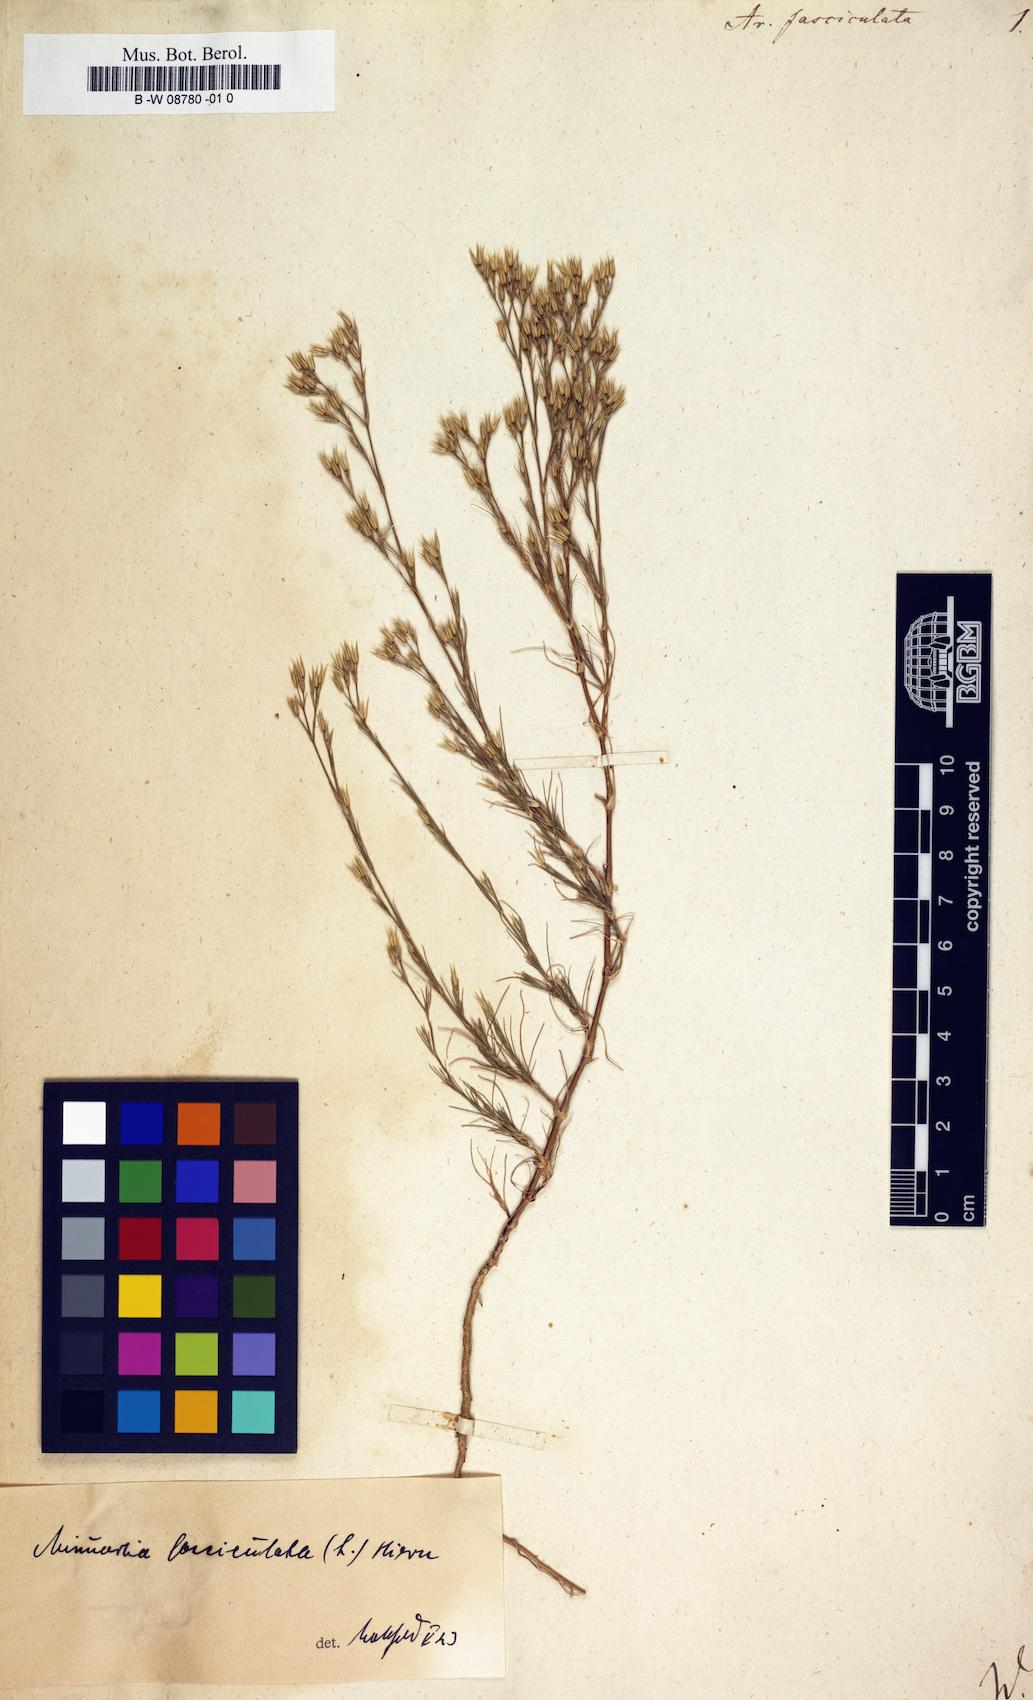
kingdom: Plantae
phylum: Tracheophyta
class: Magnoliopsida
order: Caryophyllales
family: Caryophyllaceae
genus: Minuartia
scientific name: Minuartia mucronata
